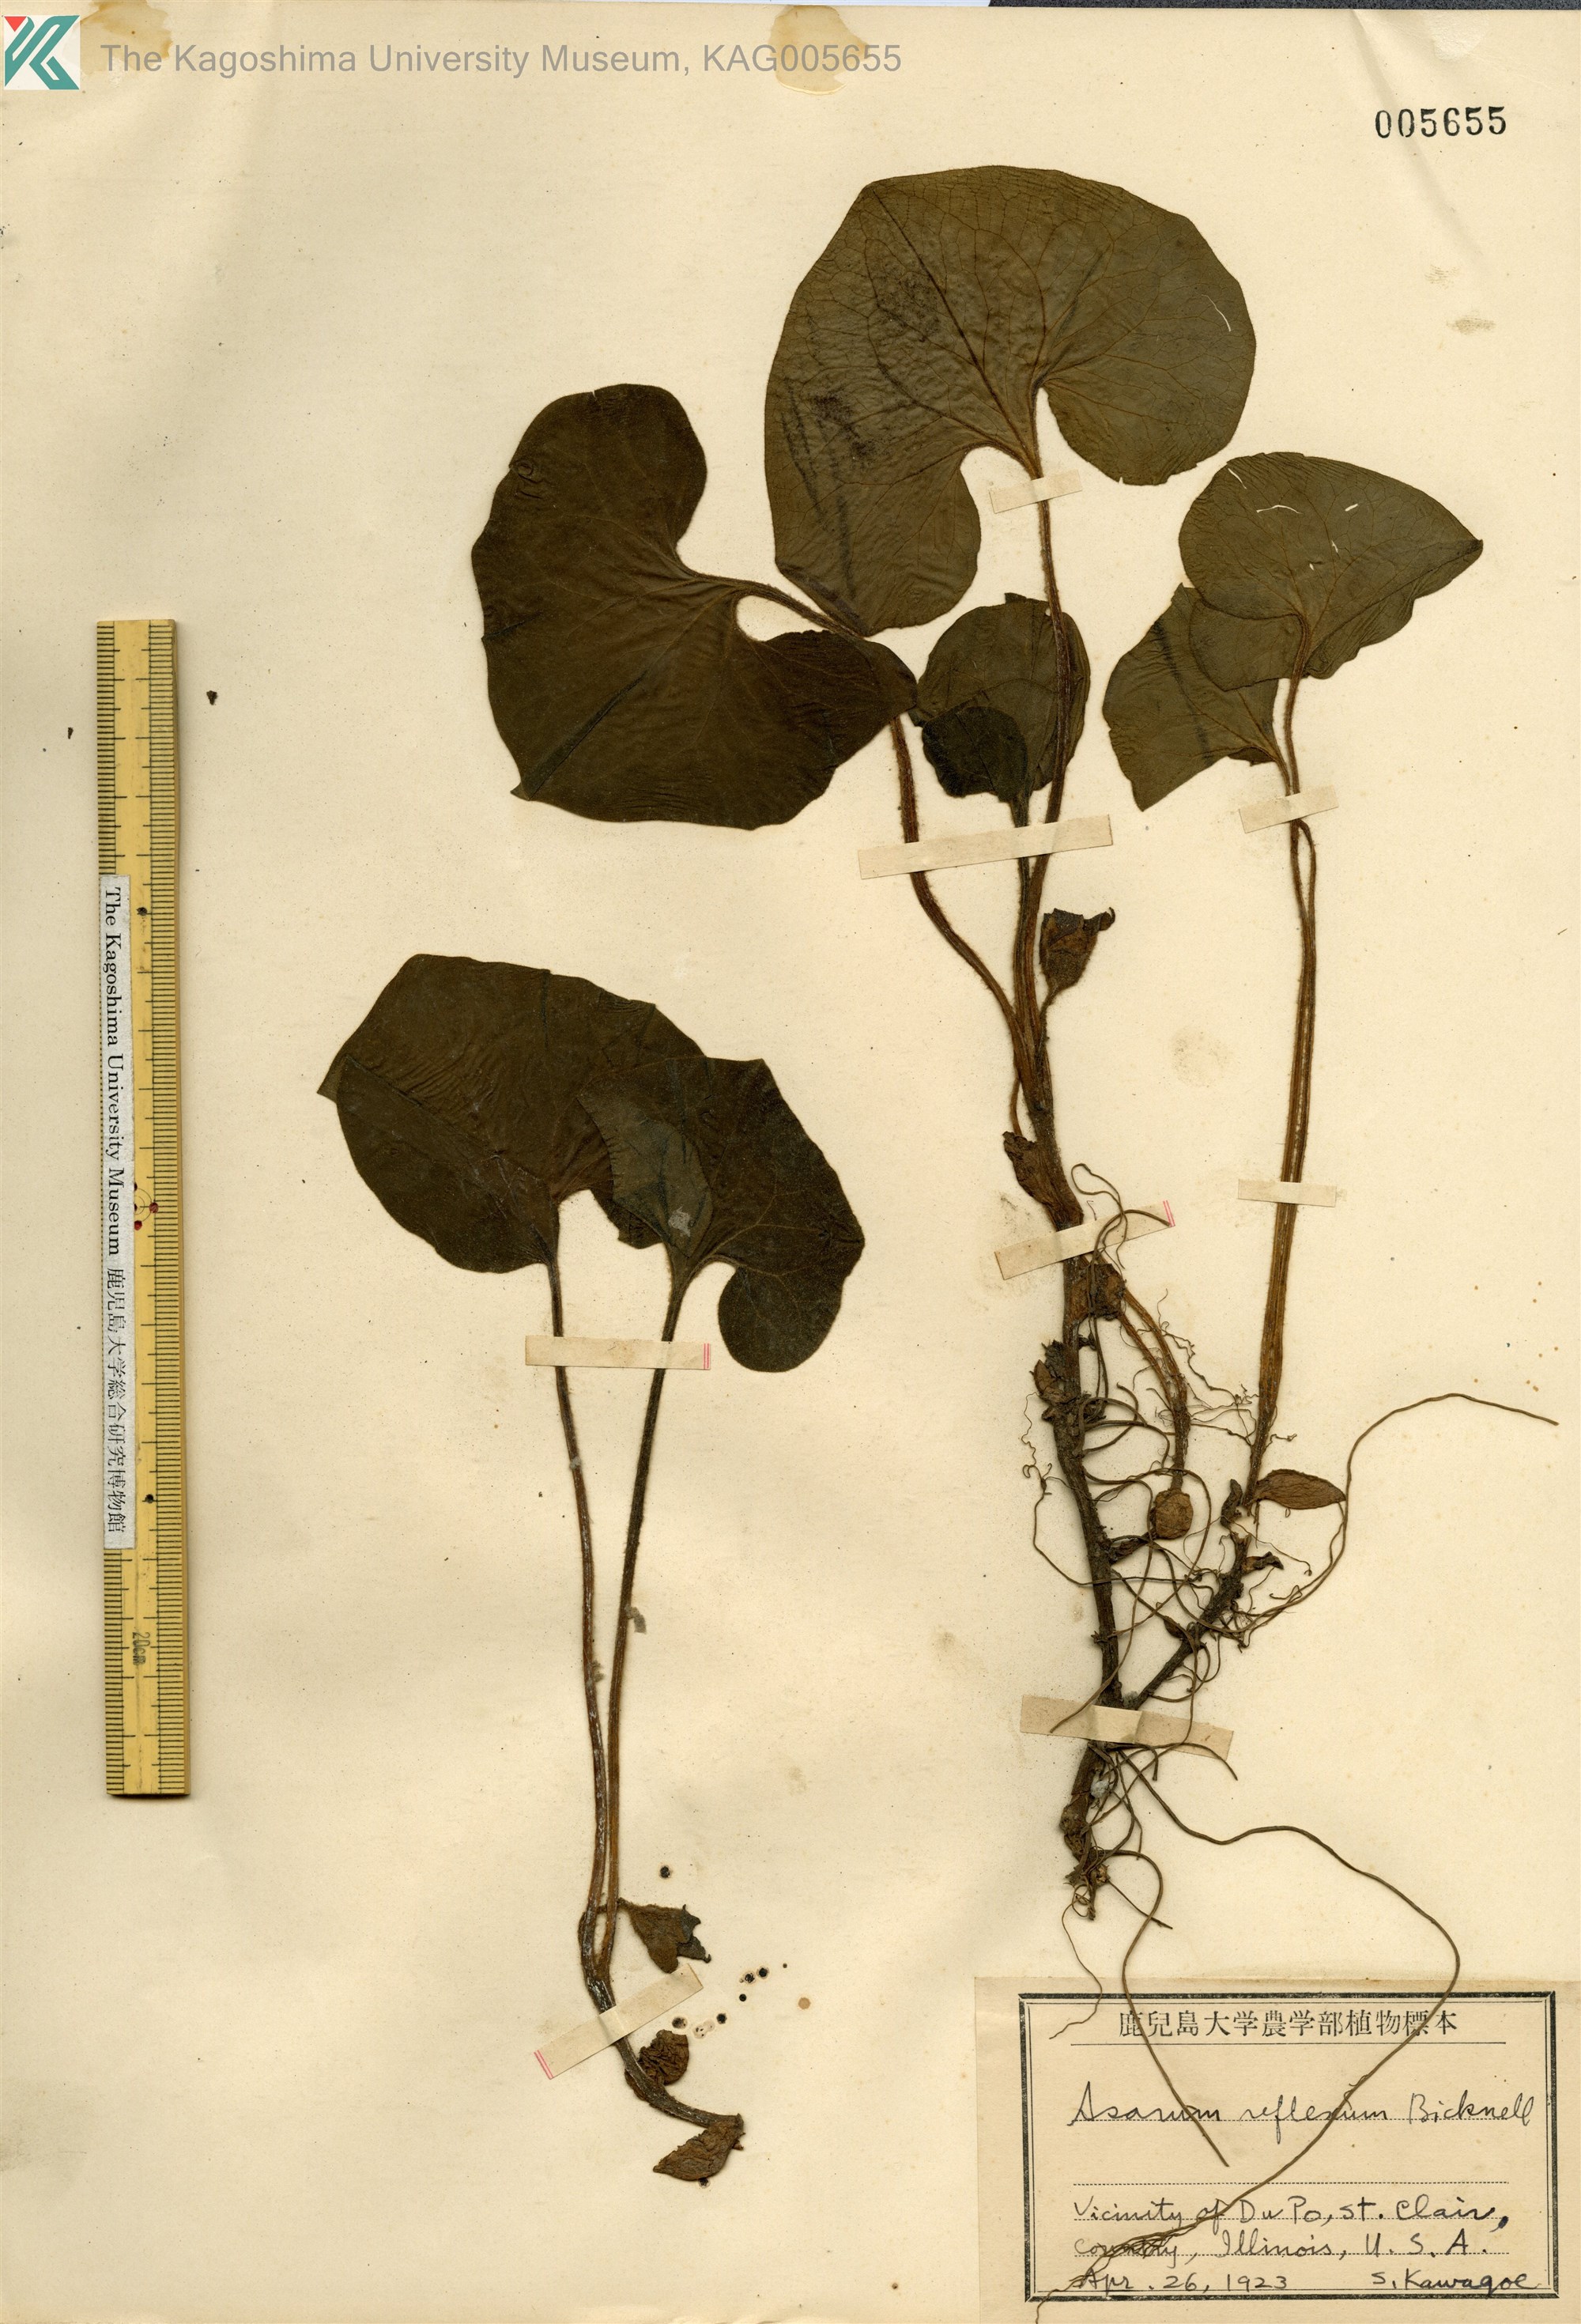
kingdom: Plantae
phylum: Tracheophyta
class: Magnoliopsida
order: Piperales
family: Aristolochiaceae
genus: Asarum
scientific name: Asarum canadense
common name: Wild ginger
